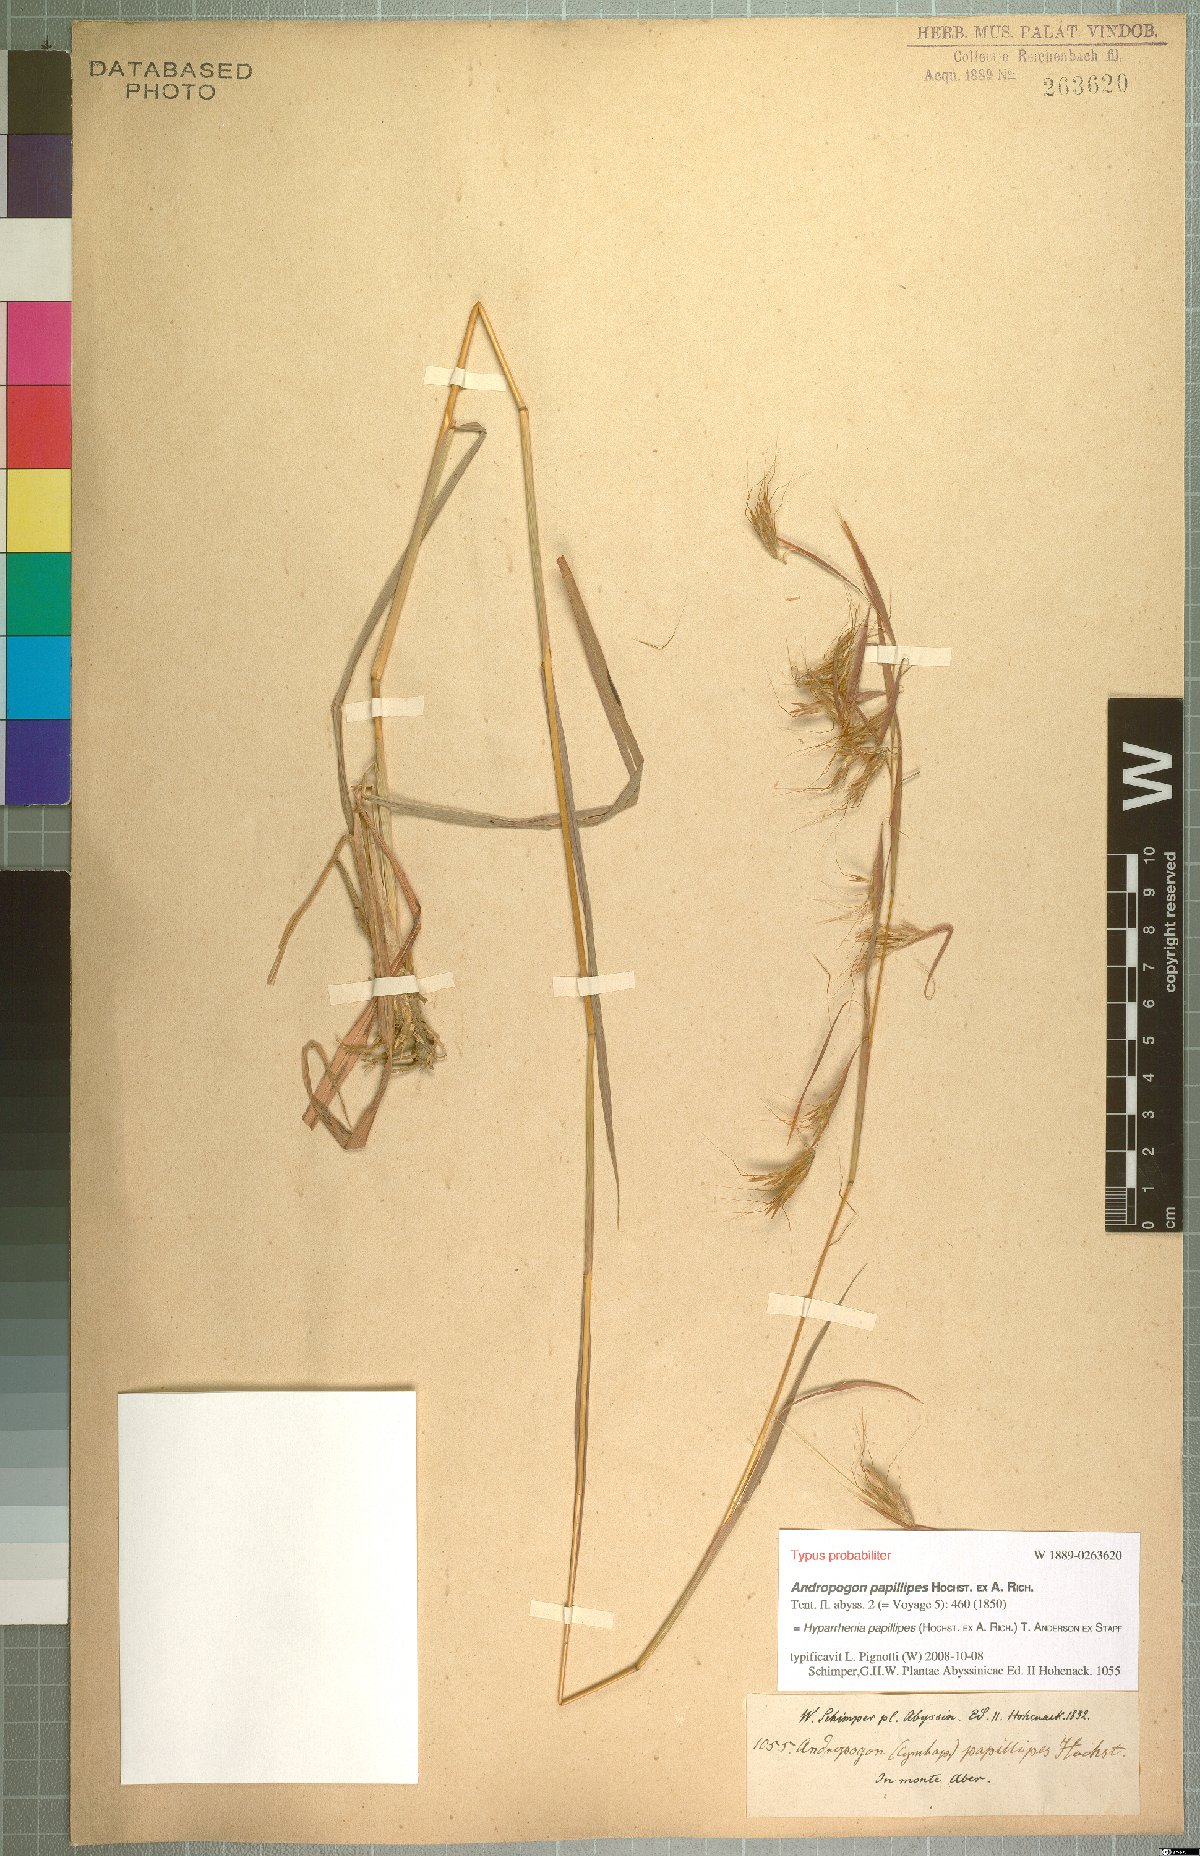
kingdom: Plantae
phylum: Tracheophyta
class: Liliopsida
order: Poales
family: Poaceae
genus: Hyparrhenia
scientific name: Hyparrhenia papillipes
